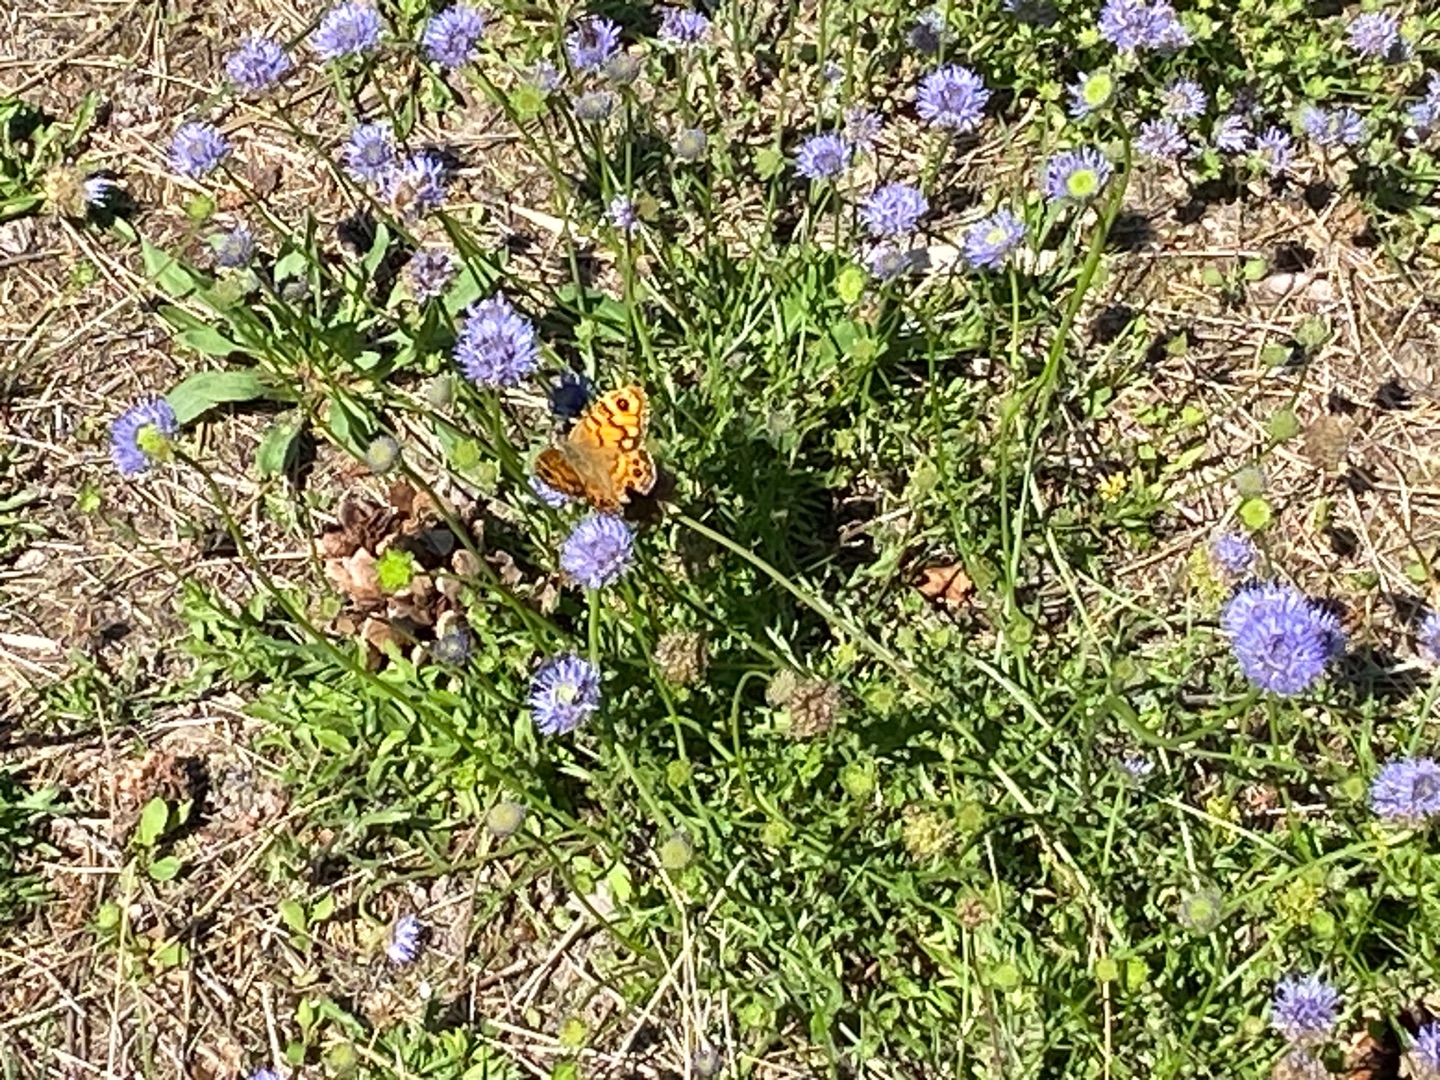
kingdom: Animalia
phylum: Arthropoda
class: Insecta
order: Lepidoptera
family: Nymphalidae
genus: Pararge
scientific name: Pararge Lasiommata megera
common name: Vejrandøje
